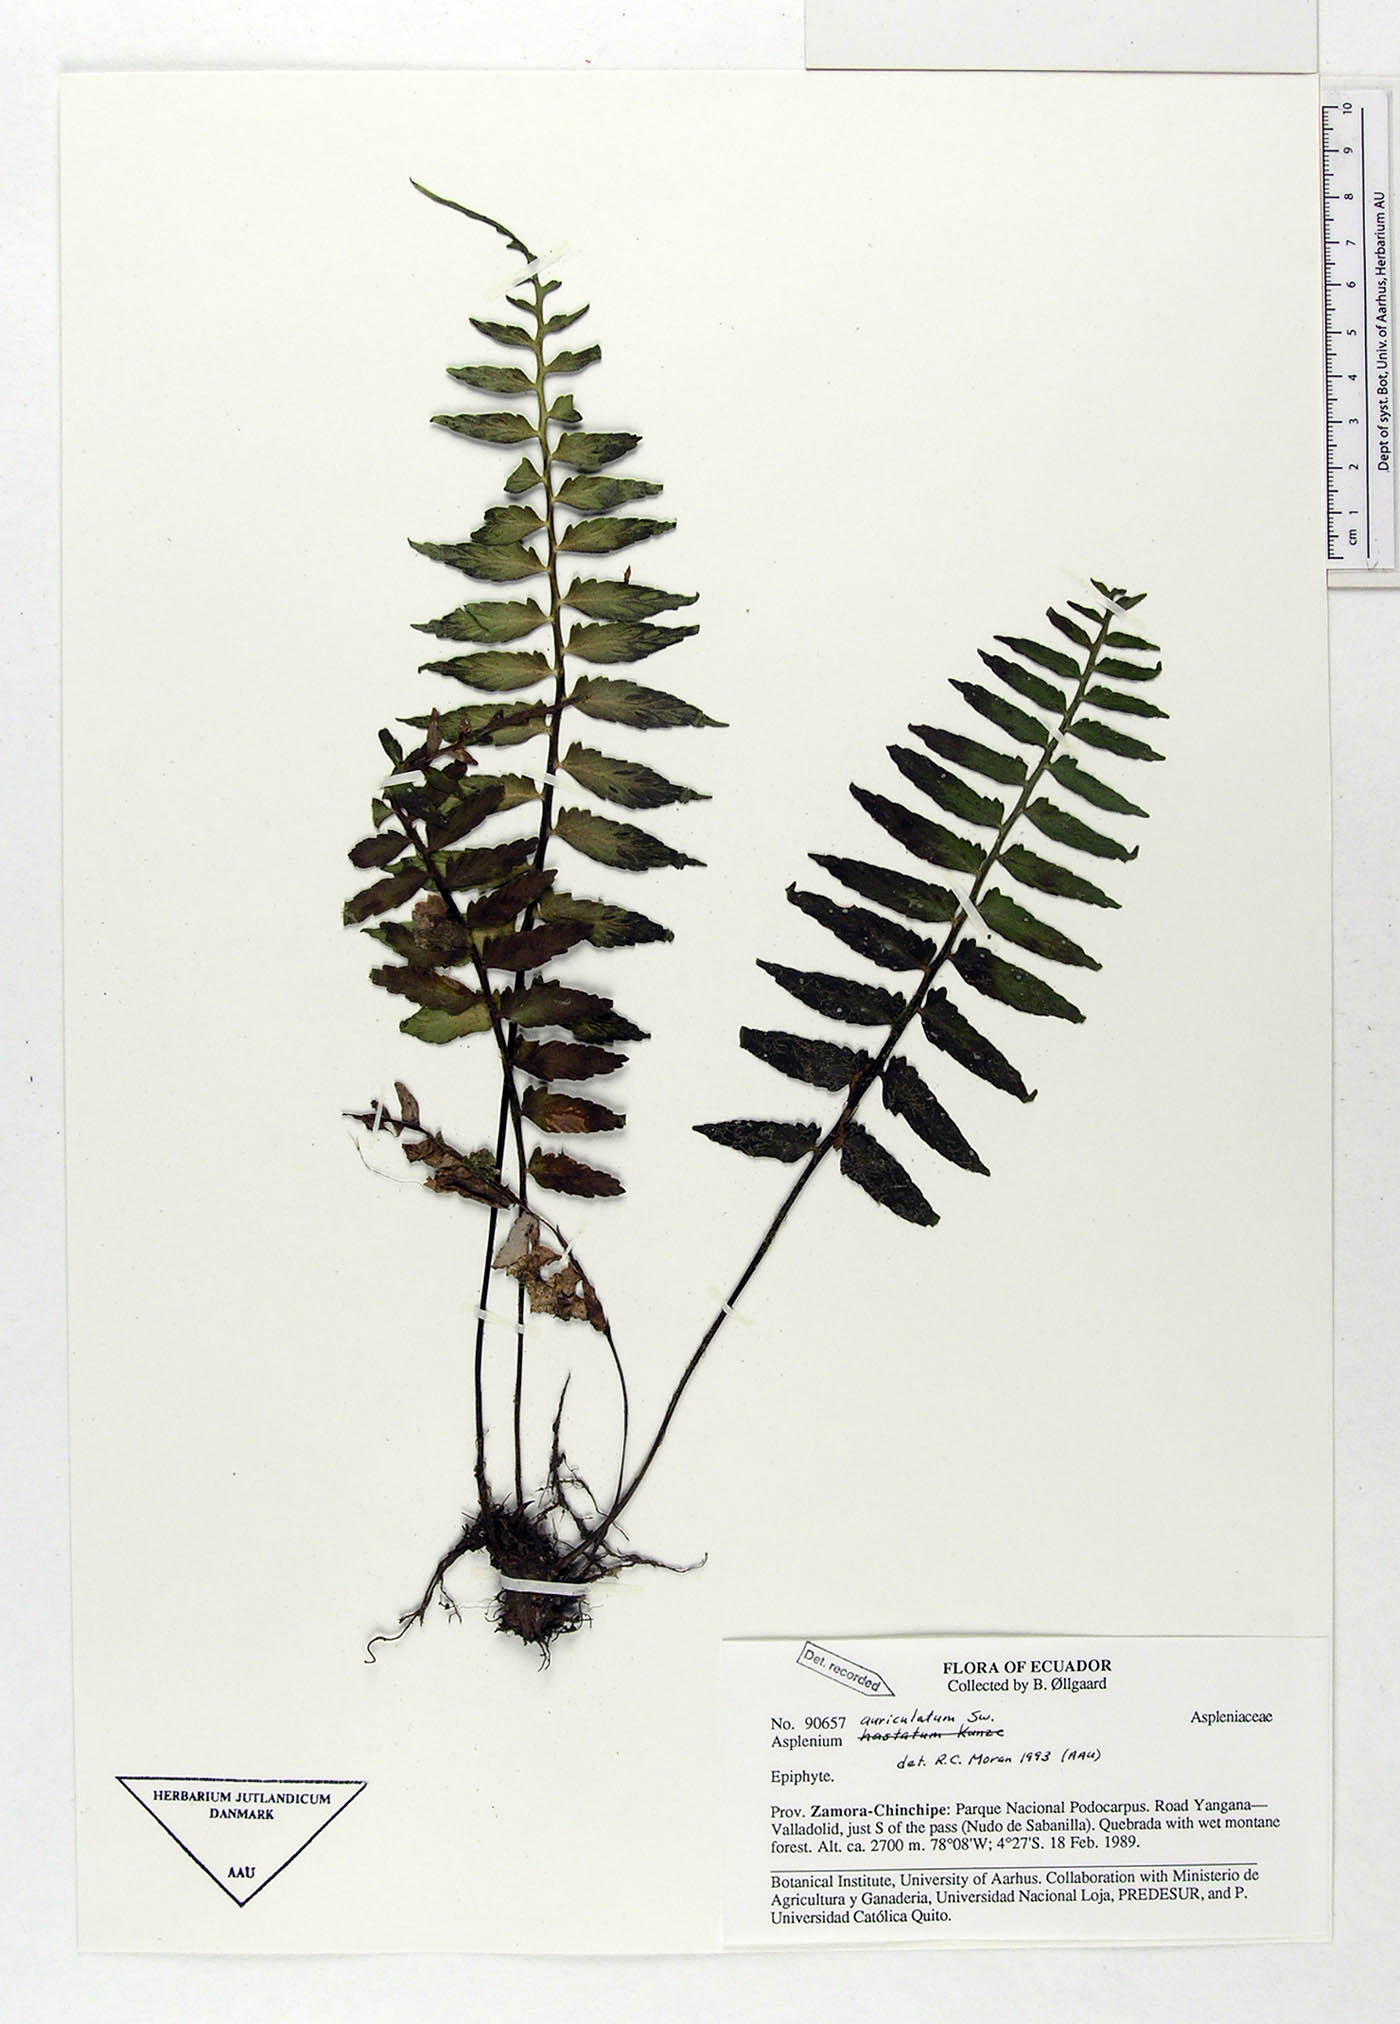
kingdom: Plantae
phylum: Tracheophyta
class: Polypodiopsida
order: Polypodiales
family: Aspleniaceae
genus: Asplenium
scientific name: Asplenium auriculatum
